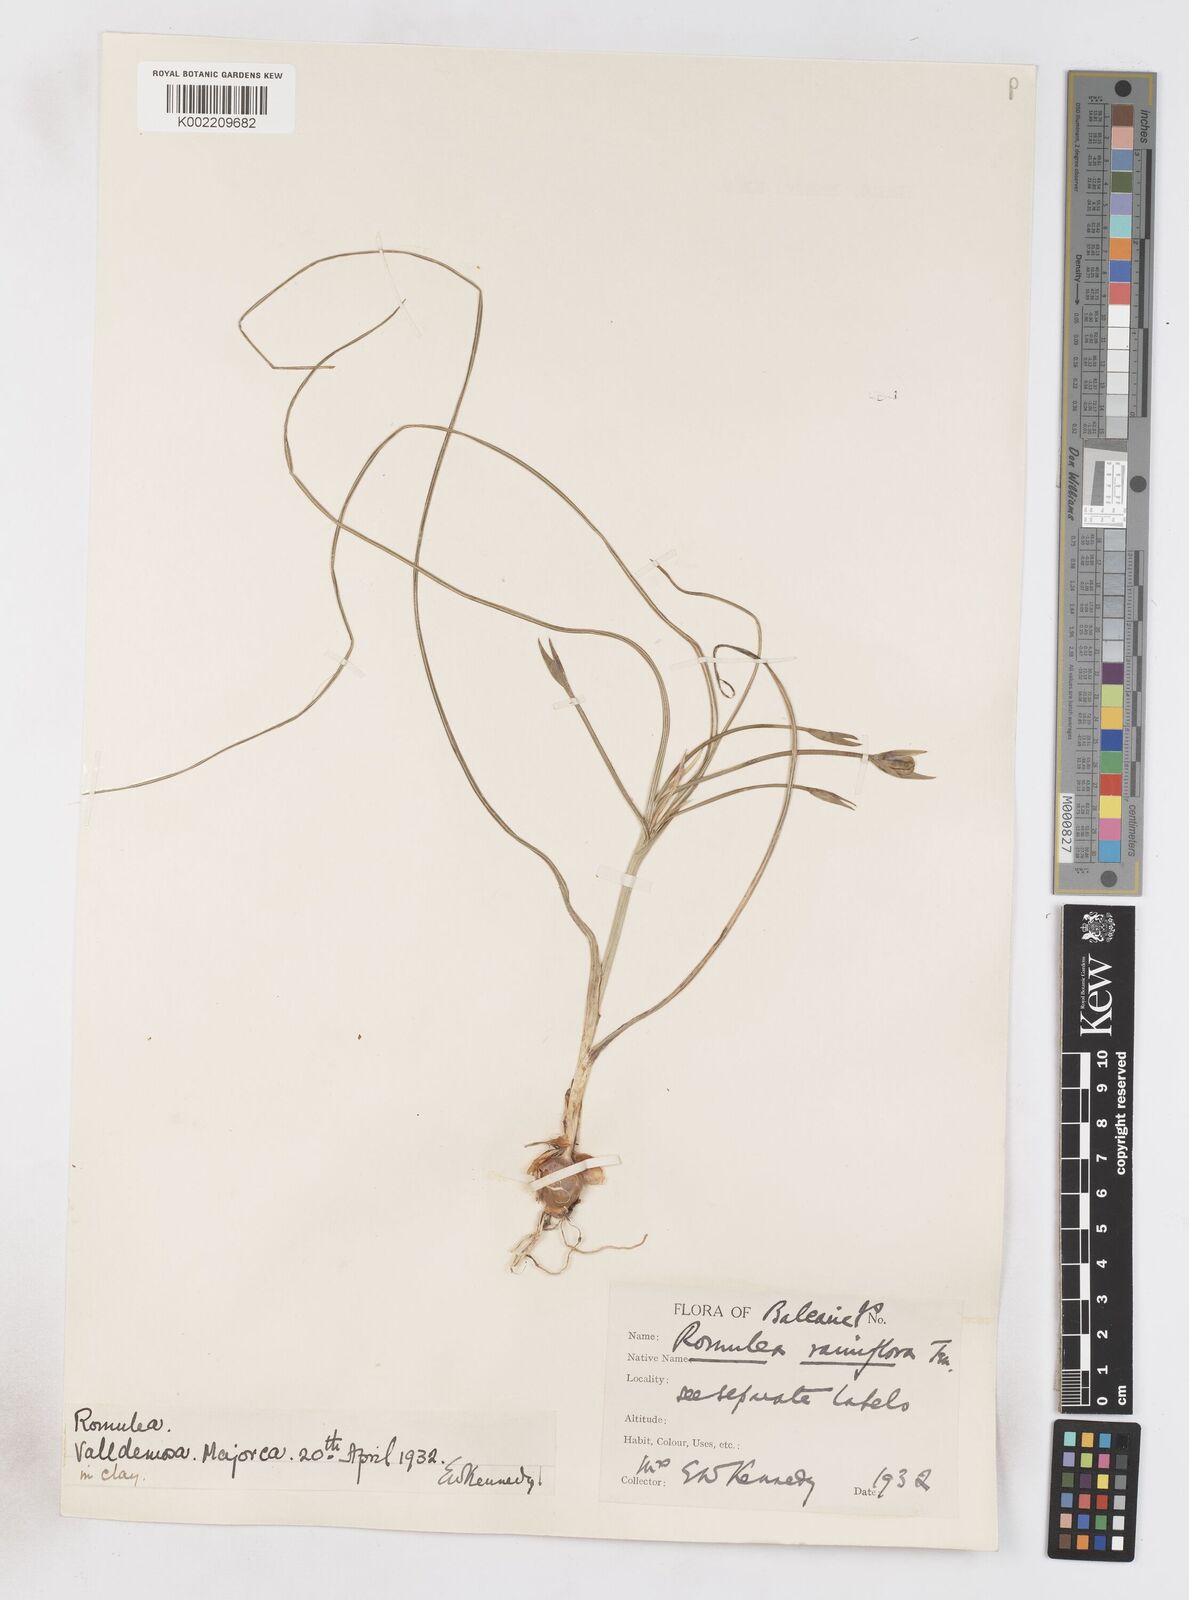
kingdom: Plantae
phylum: Tracheophyta
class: Liliopsida
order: Asparagales
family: Iridaceae
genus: Romulea
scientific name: Romulea ramiflora
